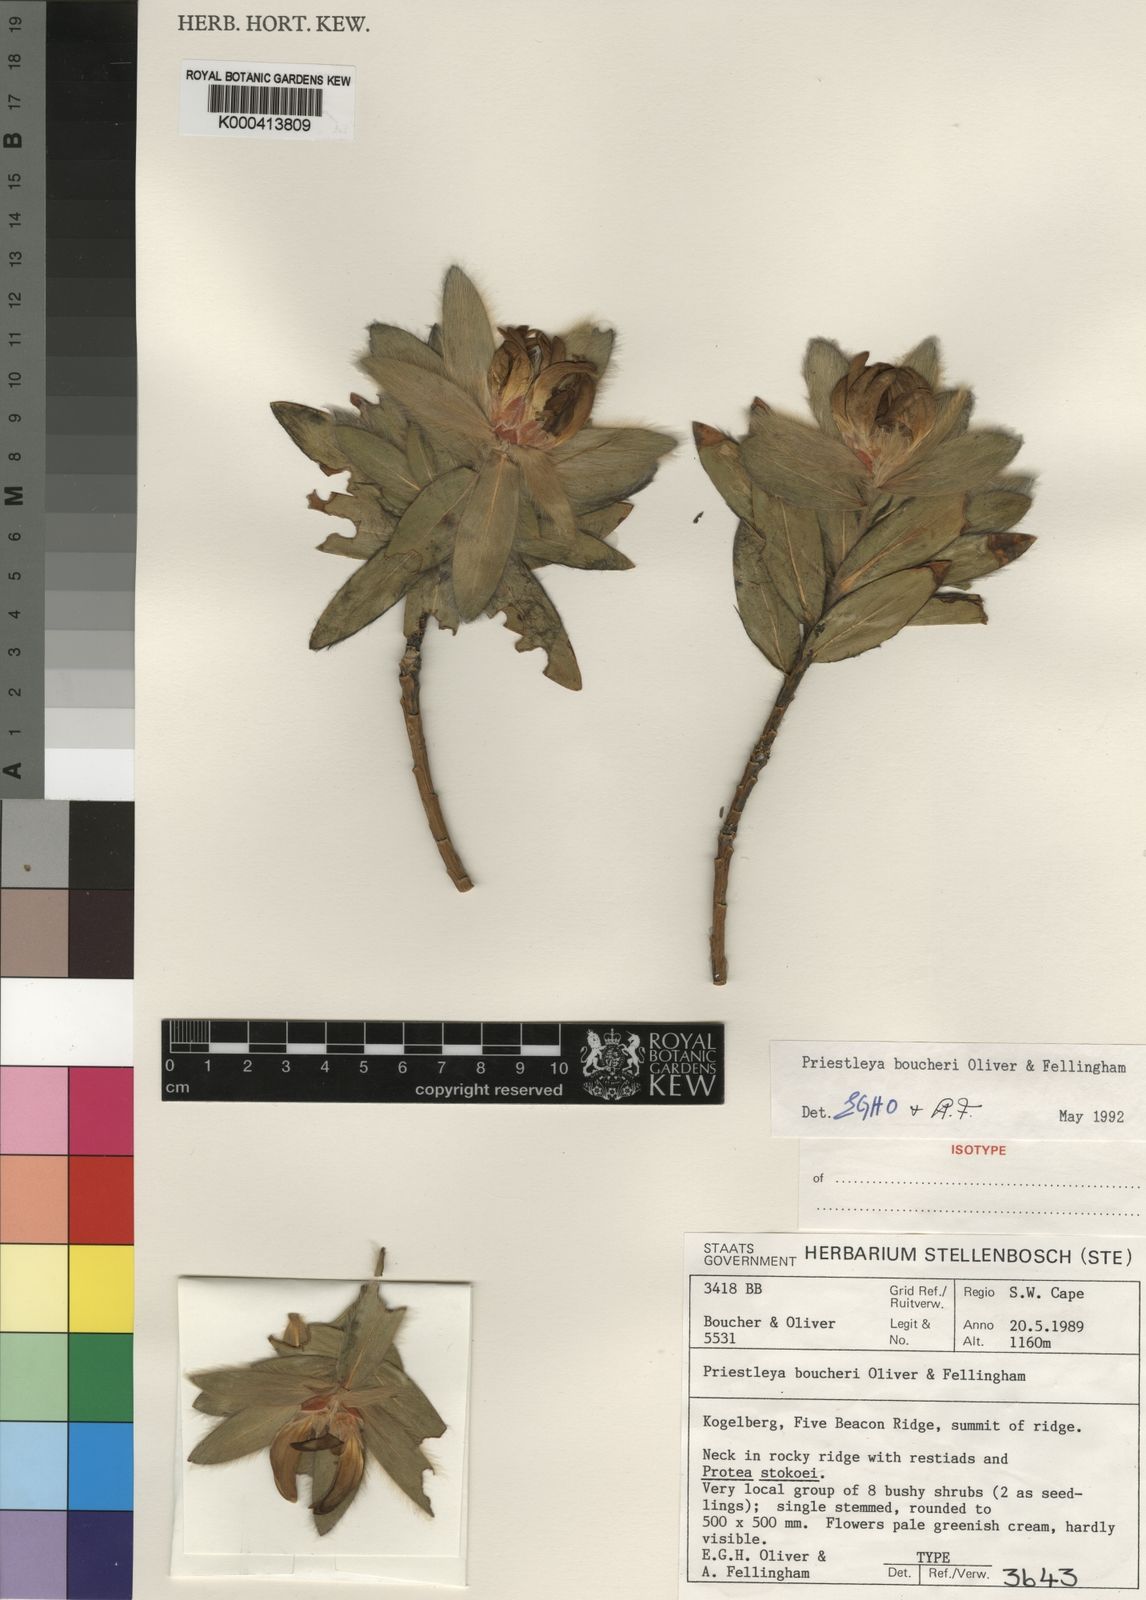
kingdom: Plantae
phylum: Tracheophyta
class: Magnoliopsida
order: Fabales
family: Fabaceae
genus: Liparia
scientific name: Liparia boucheri
